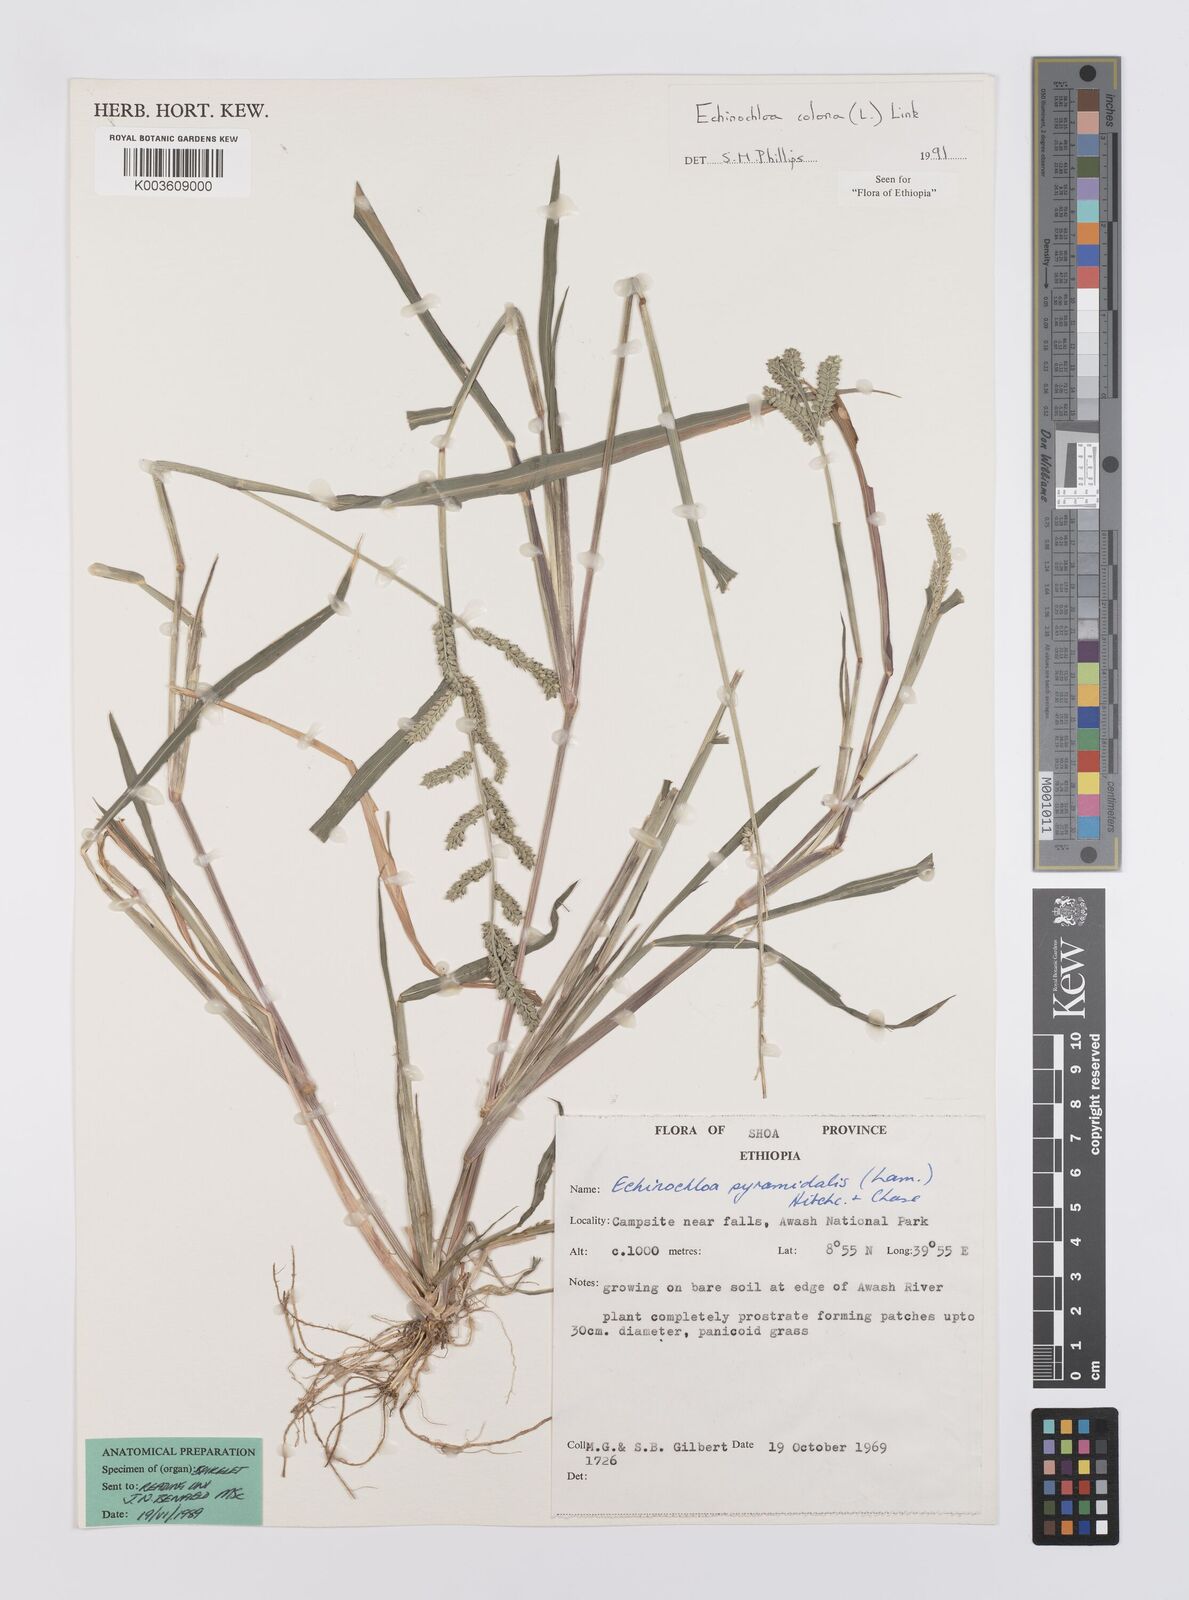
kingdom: Plantae
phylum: Tracheophyta
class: Liliopsida
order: Poales
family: Poaceae
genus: Echinochloa
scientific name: Echinochloa colonum
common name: Jungle rice
